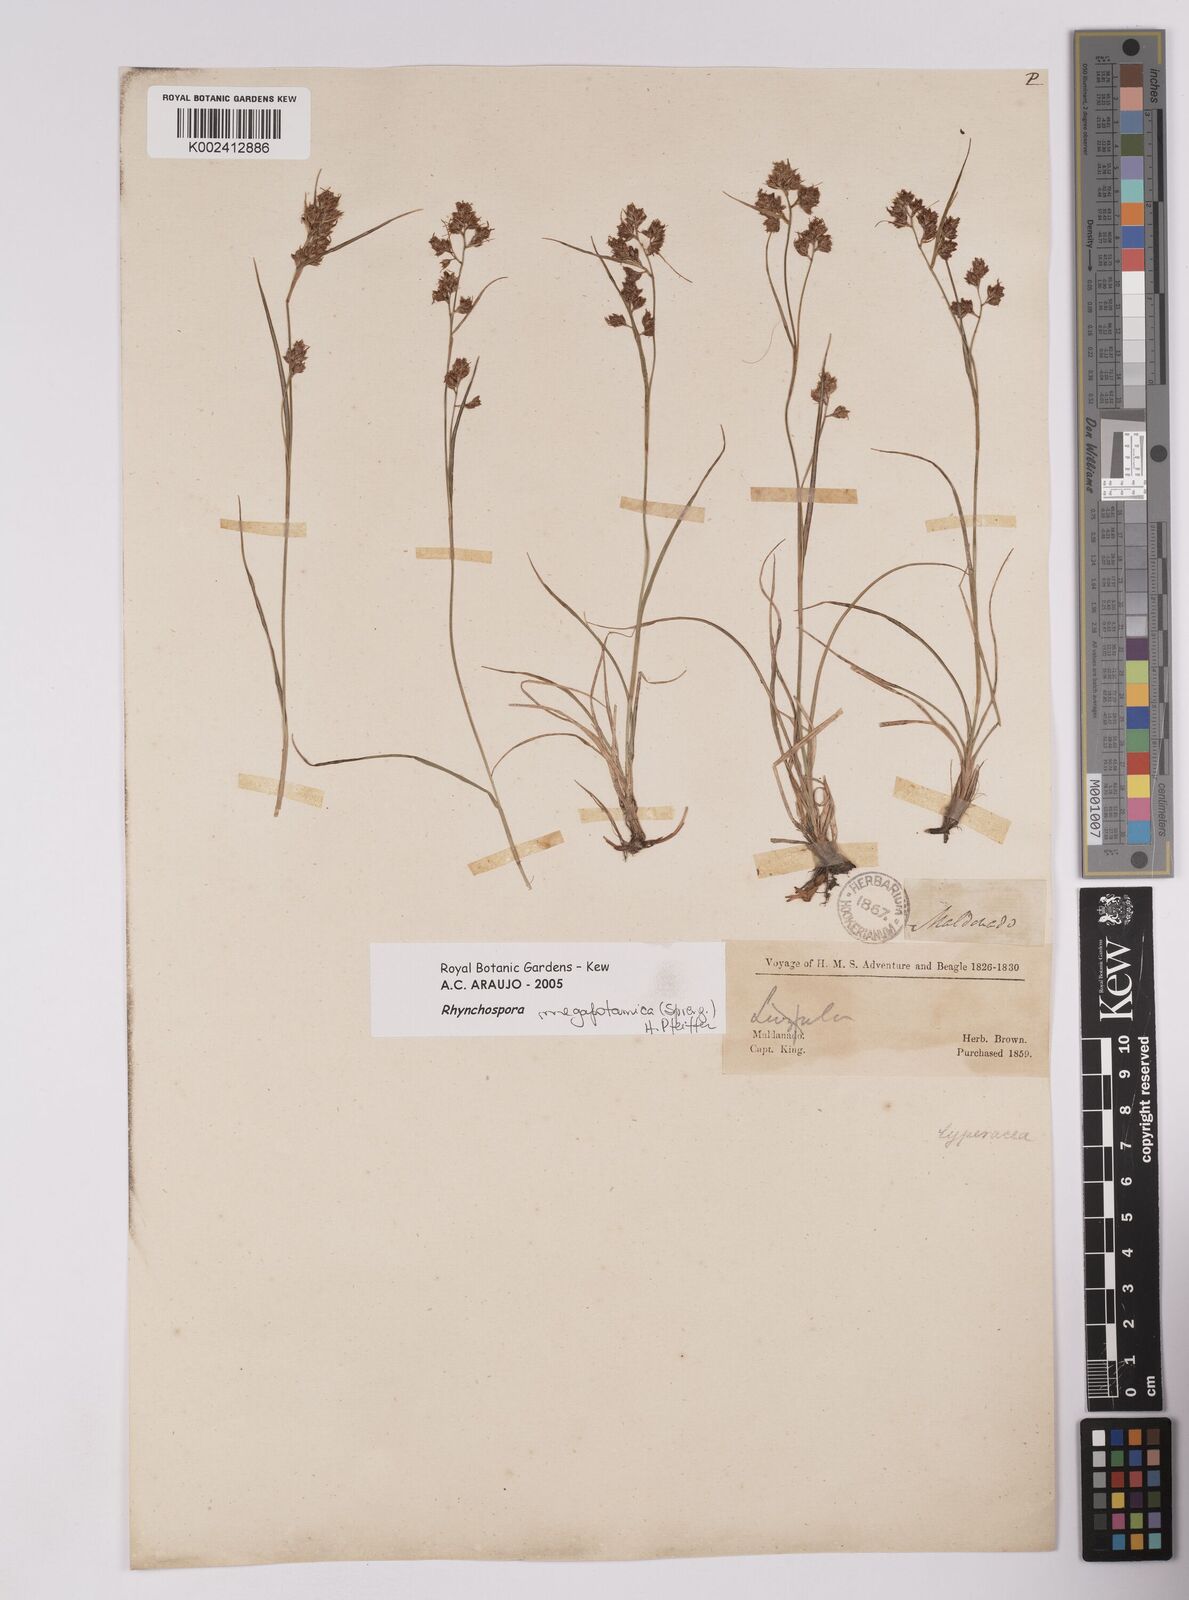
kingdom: Plantae
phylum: Tracheophyta
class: Liliopsida
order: Poales
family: Cyperaceae
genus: Rhynchospora
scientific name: Rhynchospora megapotamica
